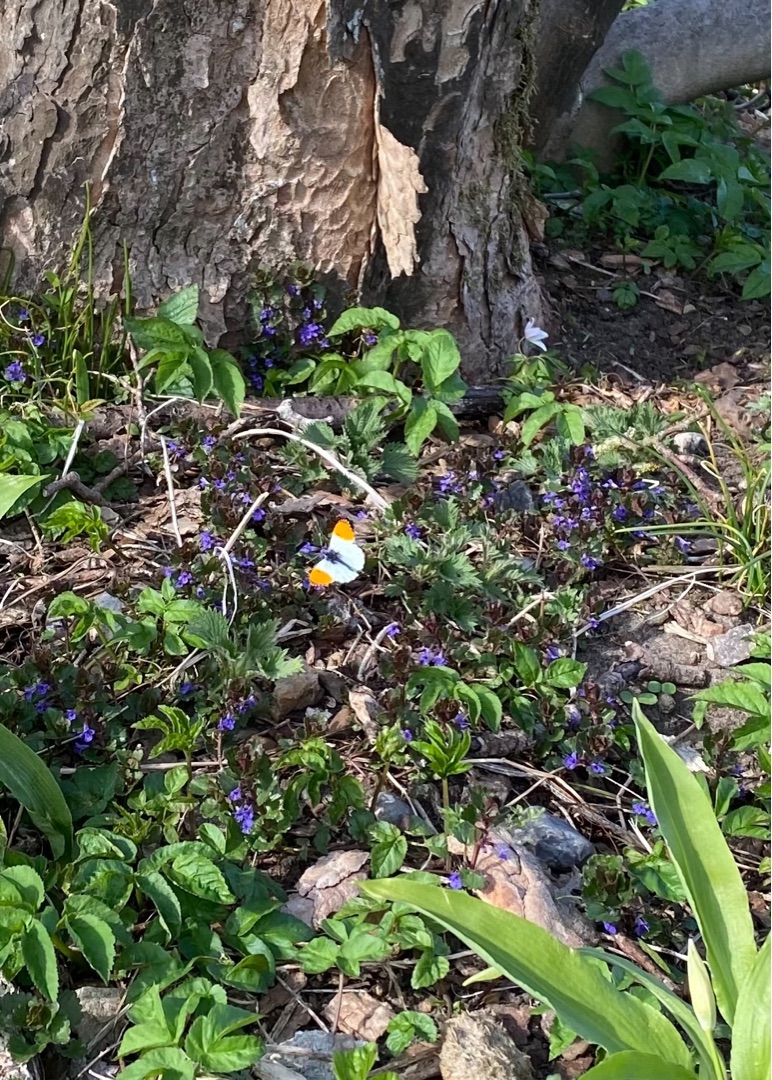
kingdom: Animalia
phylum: Arthropoda
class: Insecta
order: Lepidoptera
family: Pieridae
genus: Anthocharis
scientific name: Anthocharis cardamines
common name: Aurora
